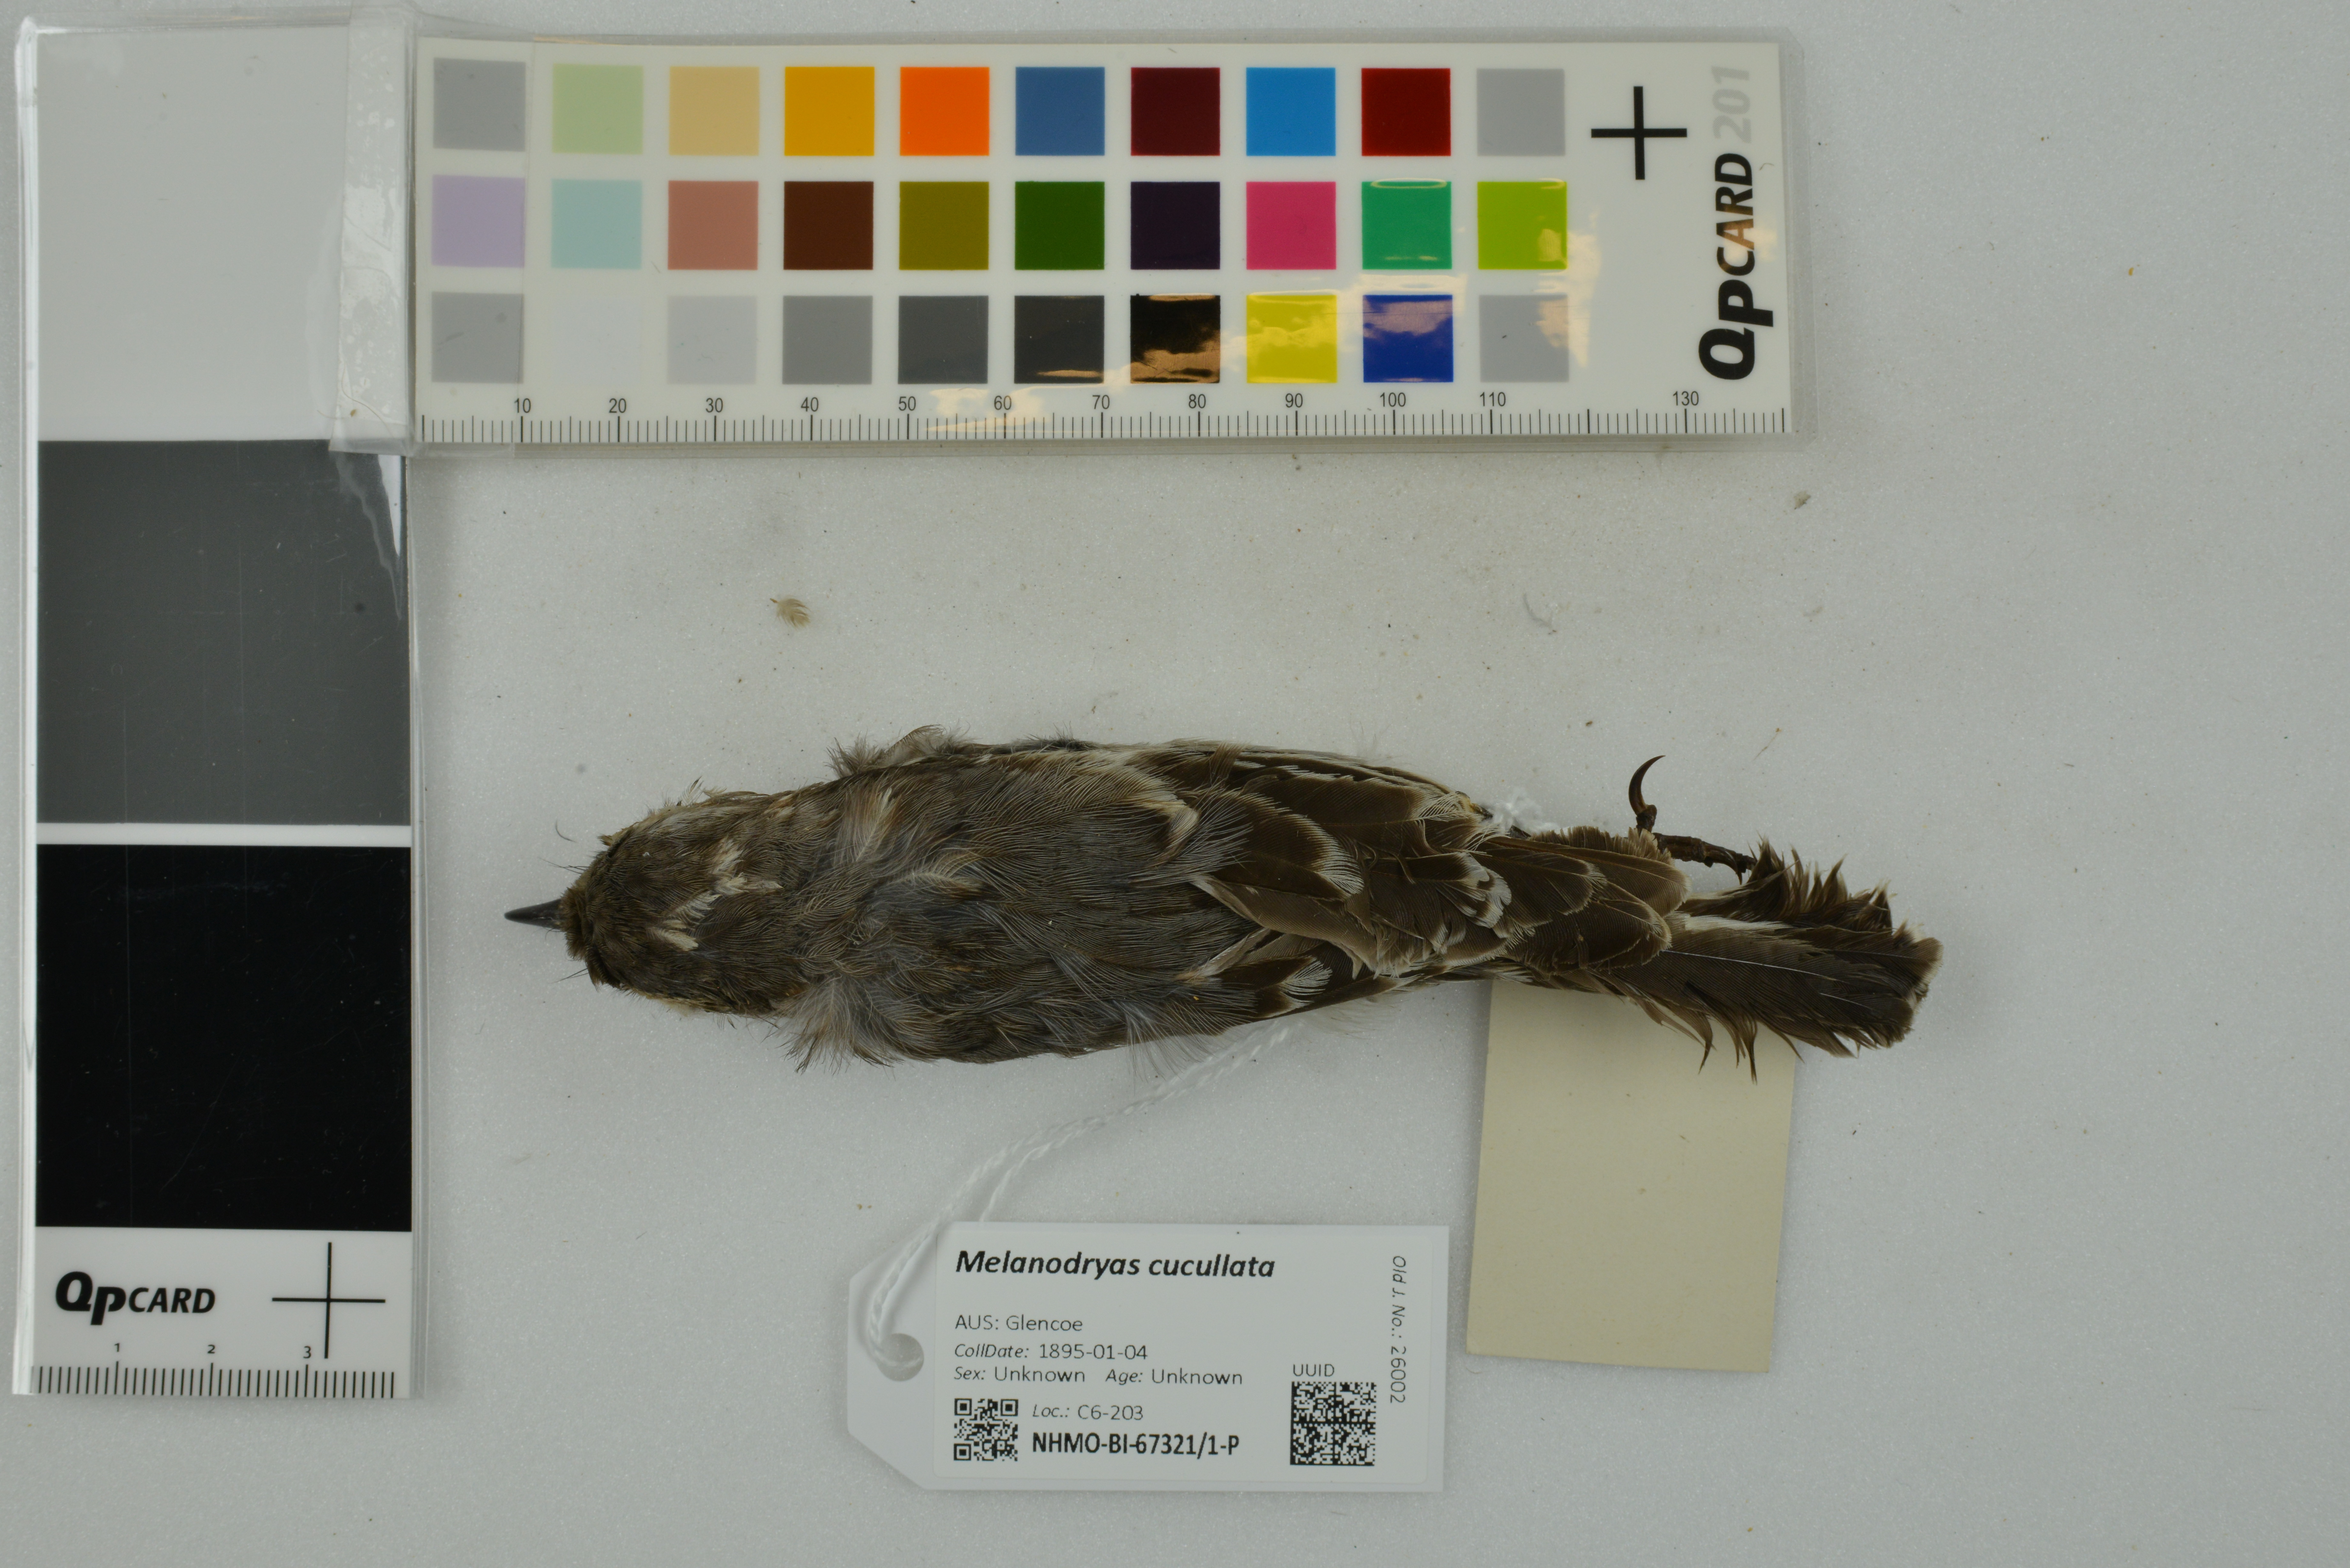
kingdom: Animalia
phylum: Chordata
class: Aves
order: Passeriformes
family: Petroicidae
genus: Melanodryas
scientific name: Melanodryas cucullata
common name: Hooded robin
